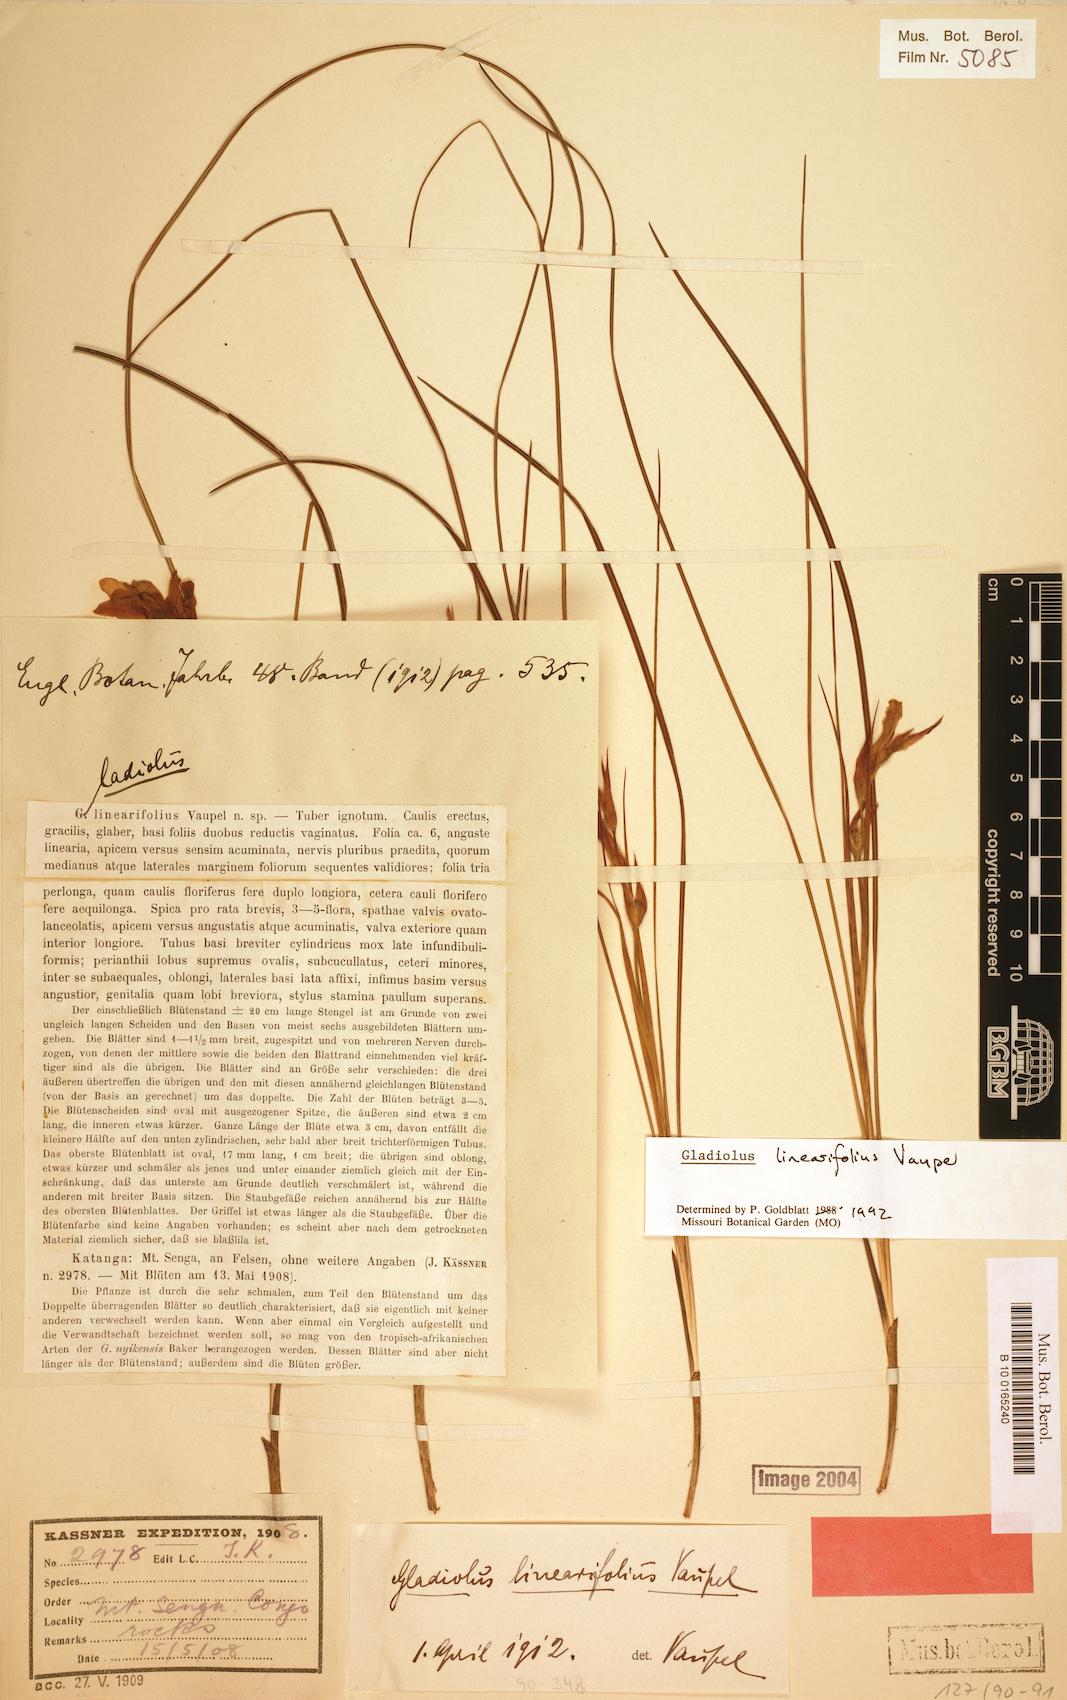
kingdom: Plantae
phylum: Tracheophyta
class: Liliopsida
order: Asparagales
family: Iridaceae
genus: Gladiolus
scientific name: Gladiolus linearifolius
